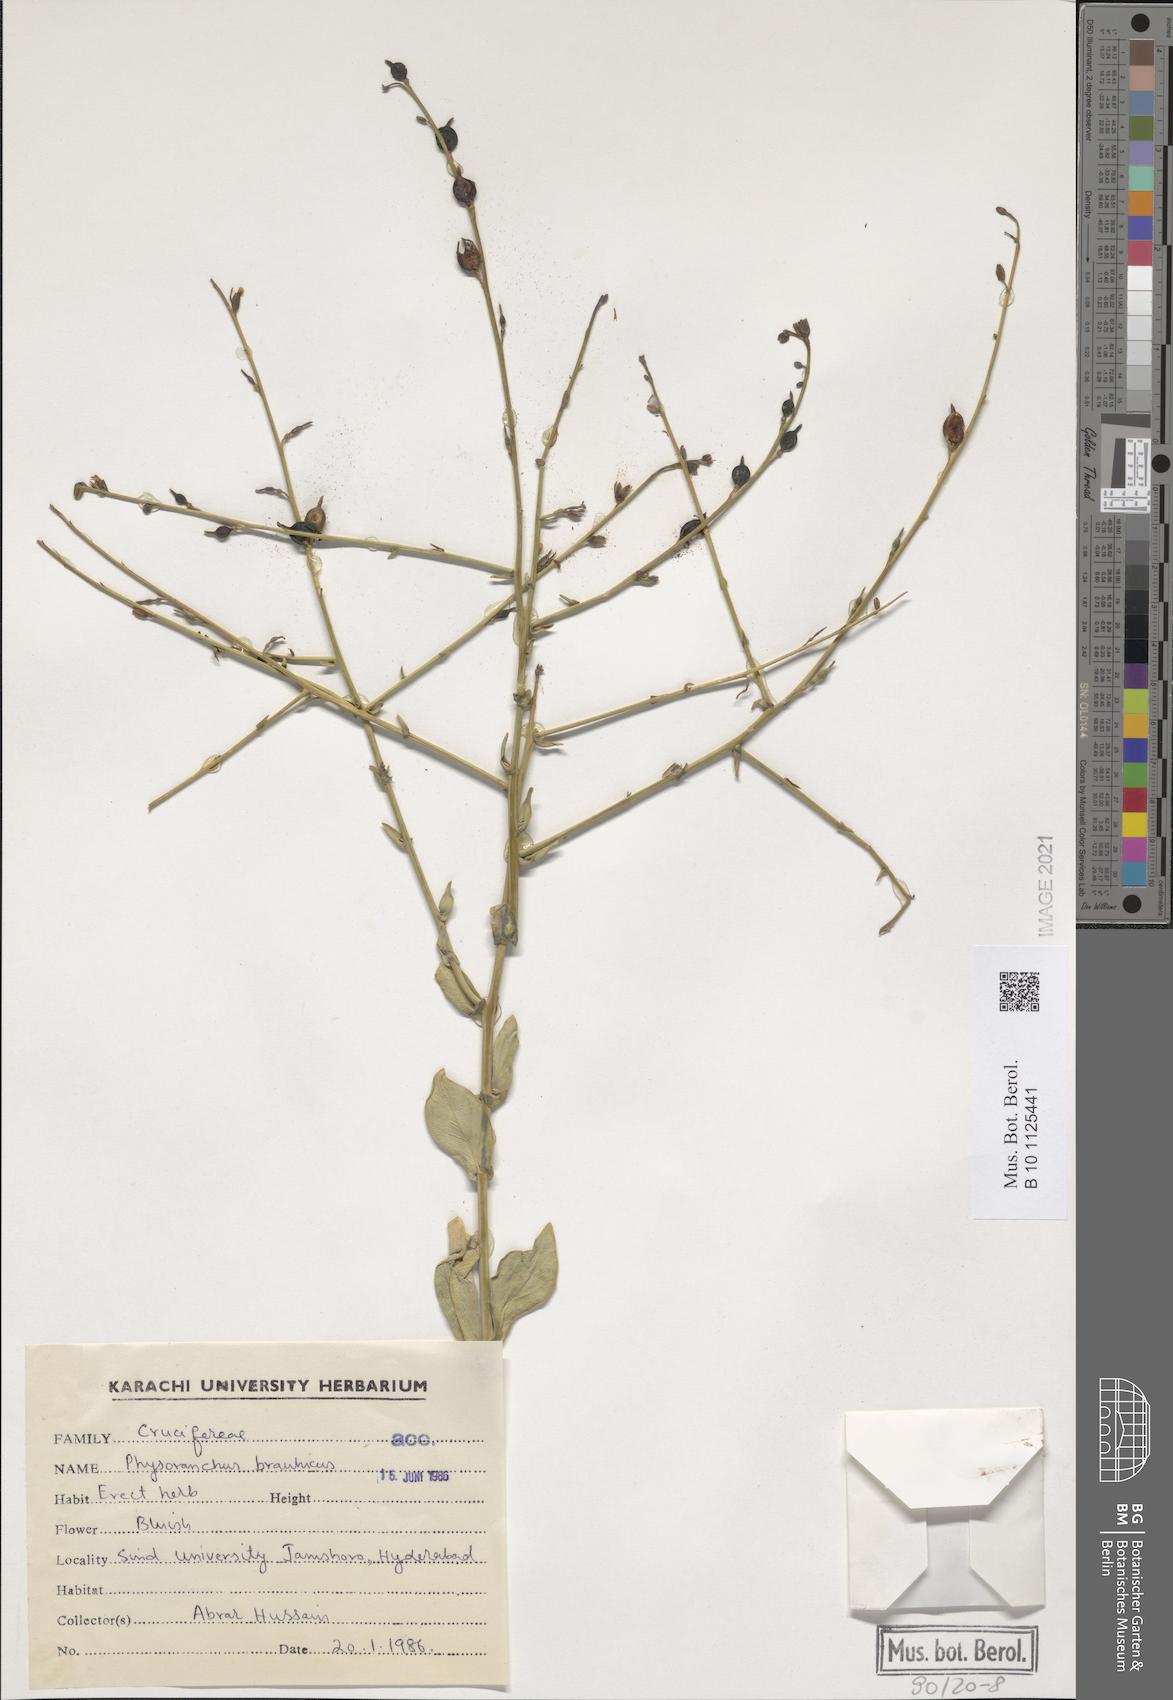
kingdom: Plantae
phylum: Tracheophyta
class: Magnoliopsida
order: Brassicales
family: Brassicaceae
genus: Physorhynchus
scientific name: Physorhynchus brahuicus
